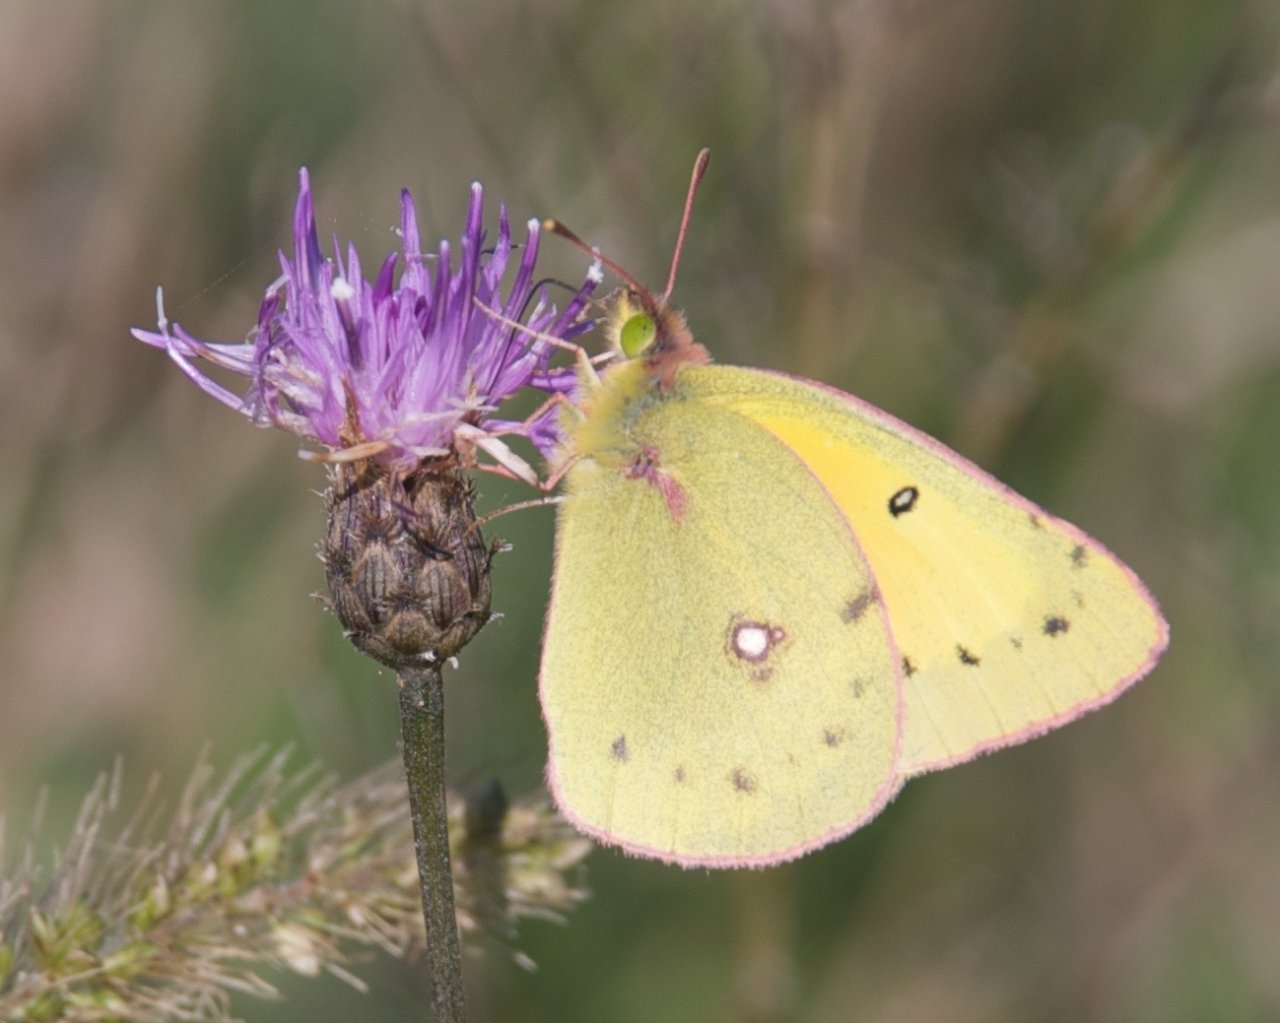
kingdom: Animalia
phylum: Arthropoda
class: Insecta
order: Lepidoptera
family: Pieridae
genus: Colias
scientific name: Colias eurytheme
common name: Orange Sulphur
